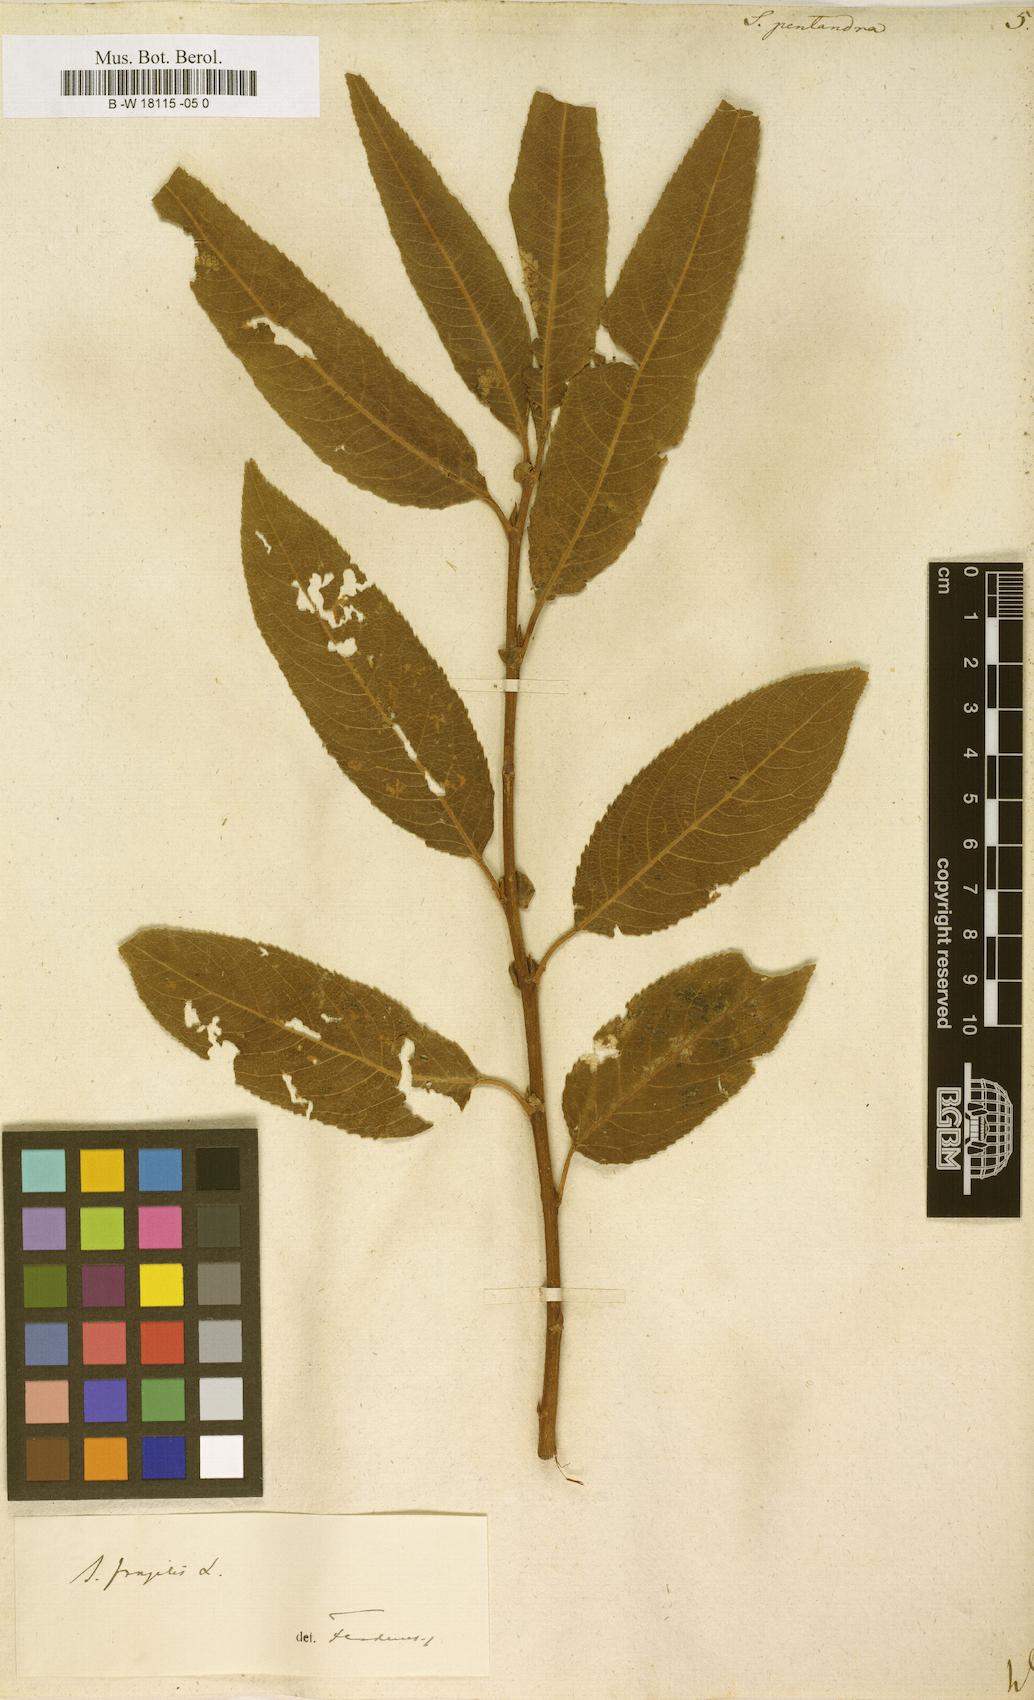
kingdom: Plantae
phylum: Tracheophyta
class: Magnoliopsida
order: Malpighiales
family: Salicaceae
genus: Salix
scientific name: Salix pentandra
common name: Bay willow
